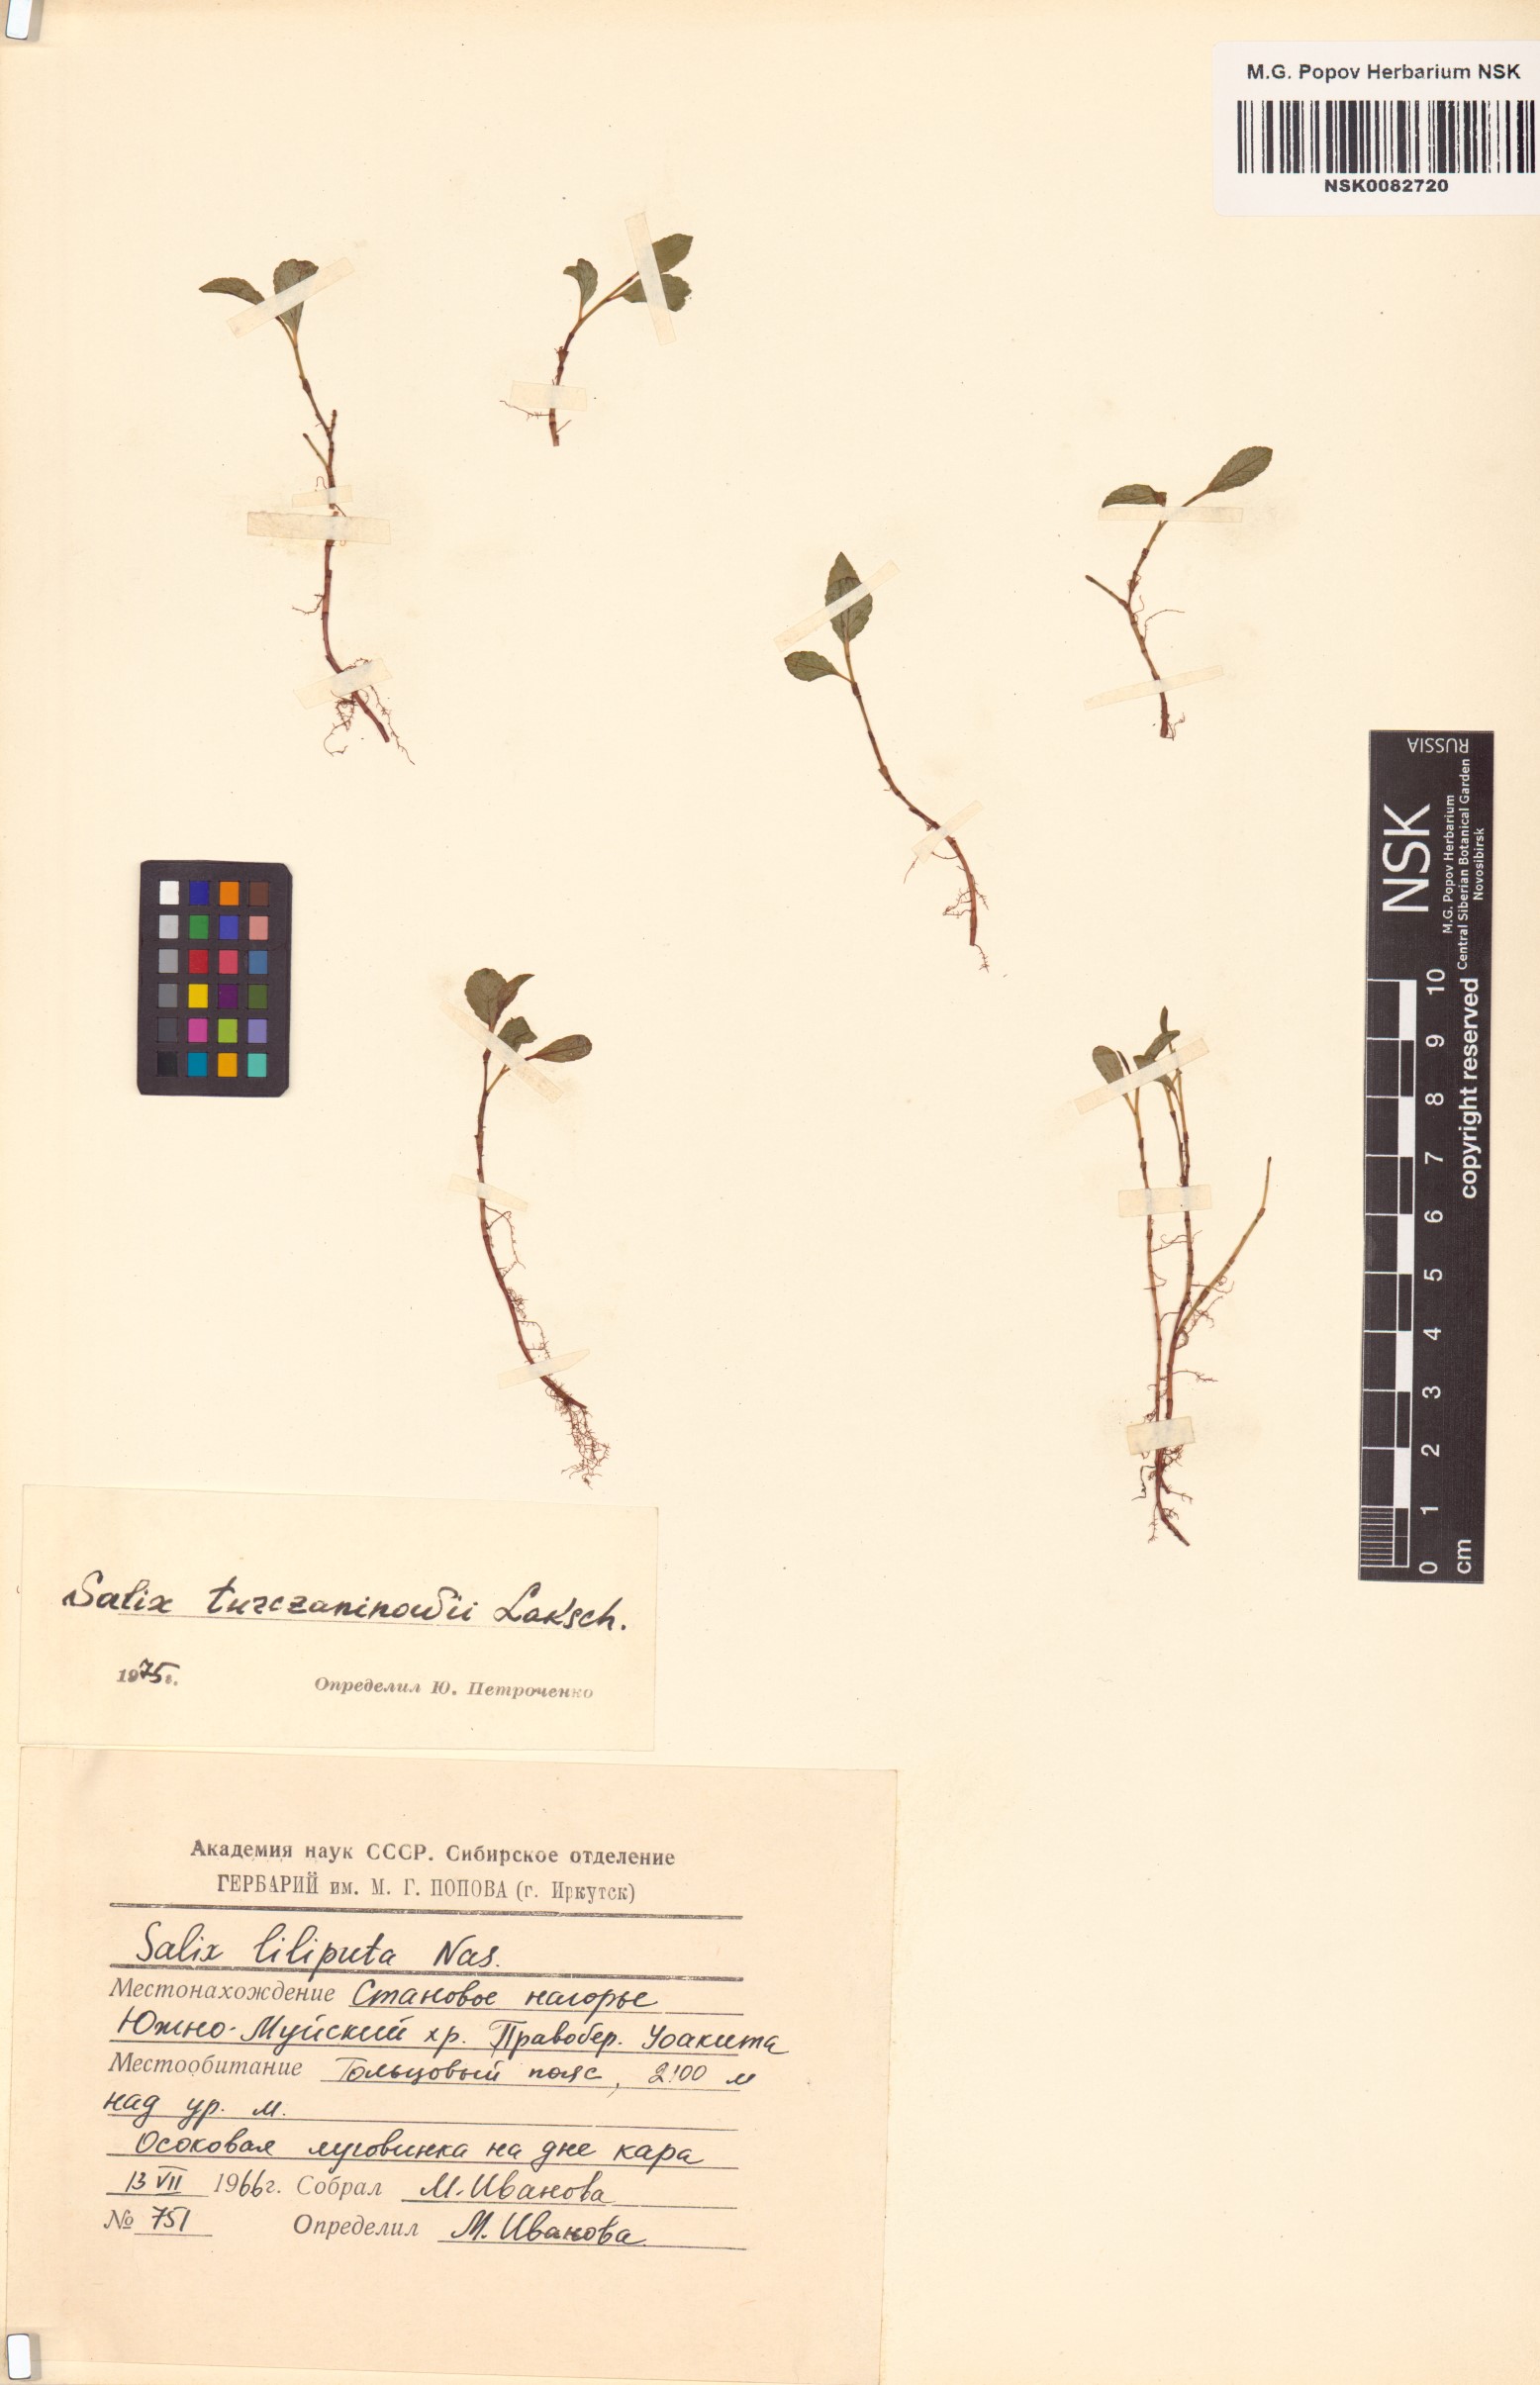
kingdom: Plantae
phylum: Tracheophyta
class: Magnoliopsida
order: Malpighiales
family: Salicaceae
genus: Salix
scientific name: Salix turczaninowii
